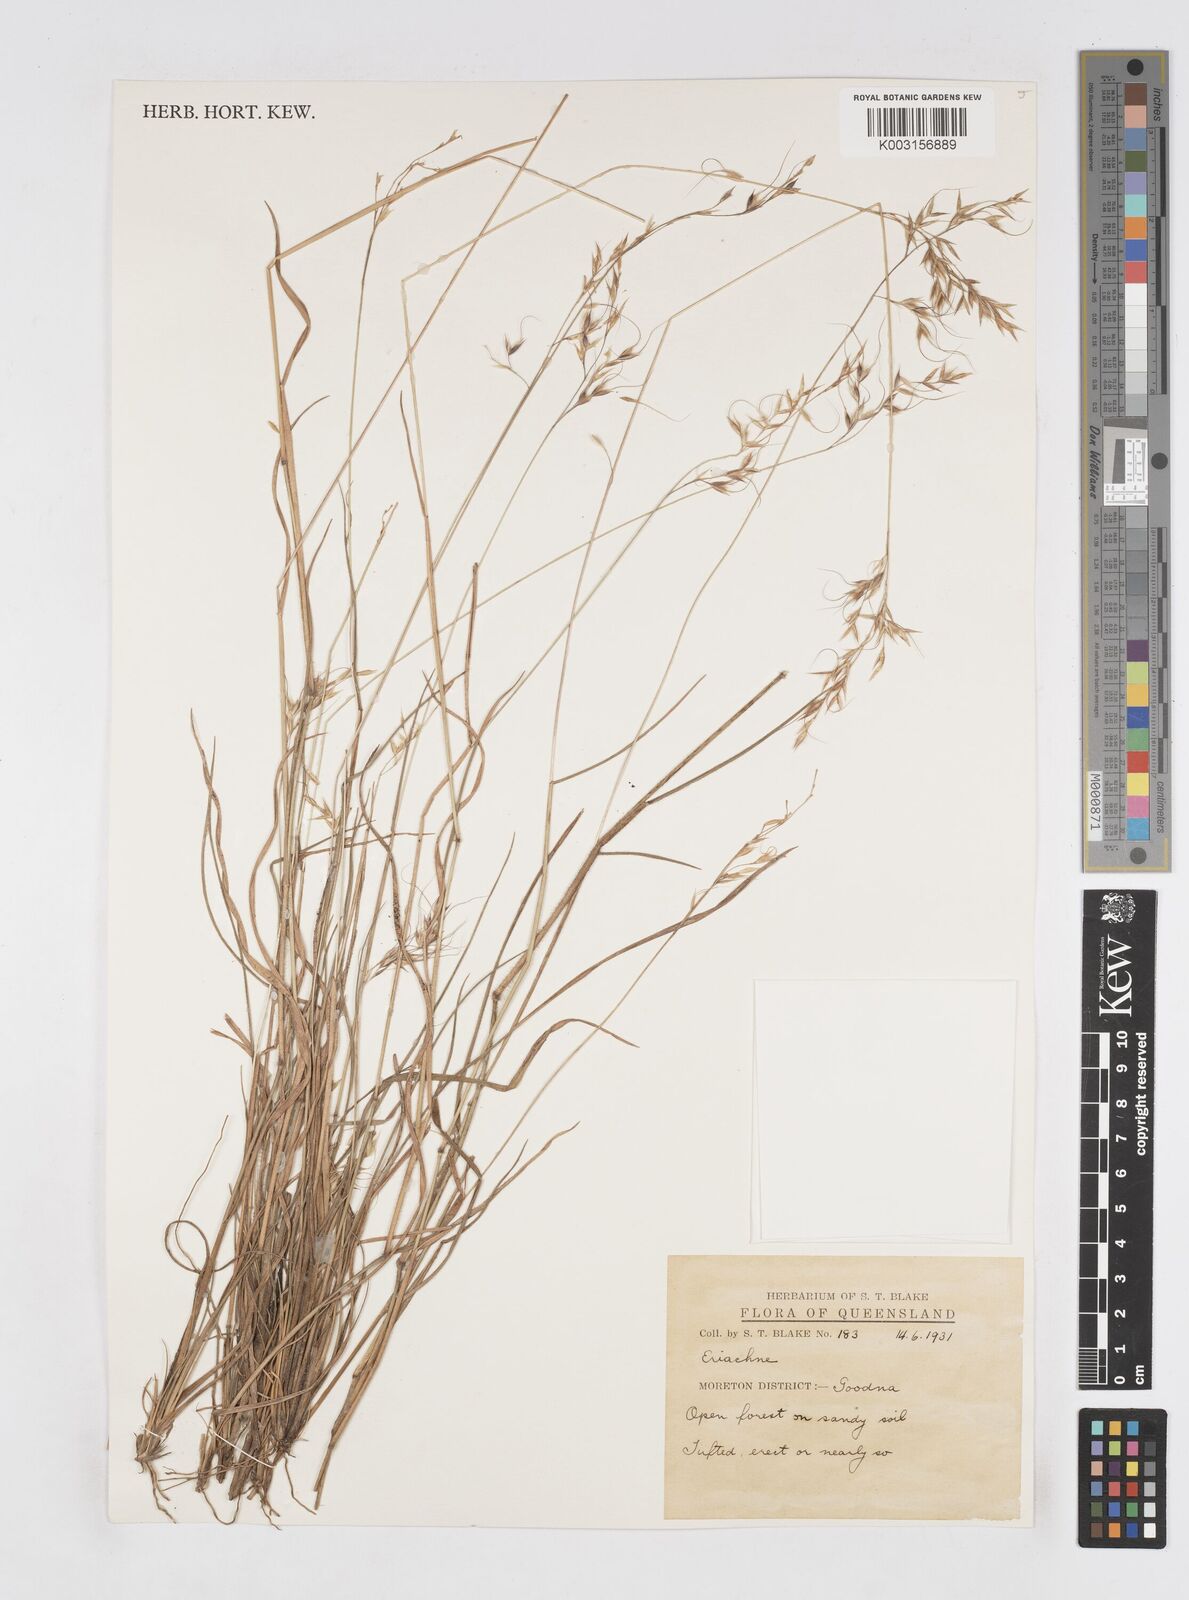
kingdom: Plantae
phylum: Tracheophyta
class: Liliopsida
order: Poales
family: Poaceae
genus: Eriachne
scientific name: Eriachne rara
